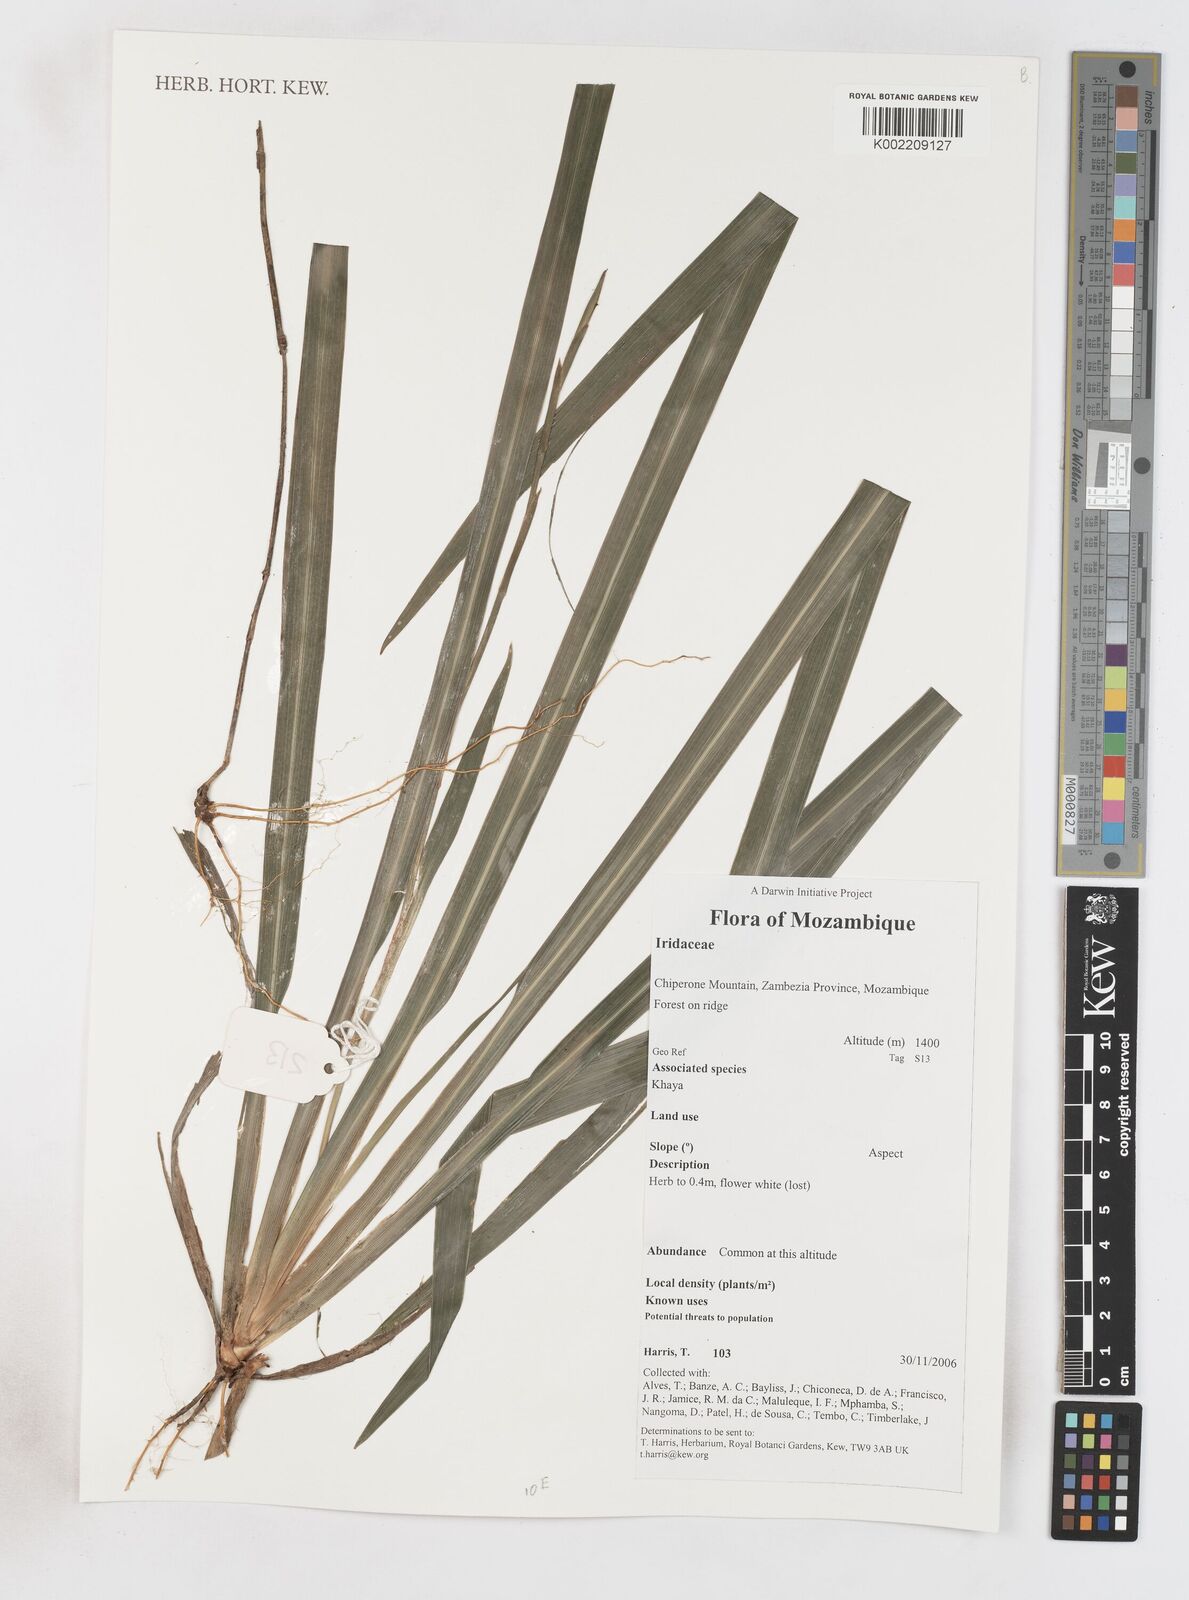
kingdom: Plantae
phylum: Tracheophyta
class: Liliopsida
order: Asparagales
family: Iridaceae
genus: Crocosmia
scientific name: Crocosmia aurea
